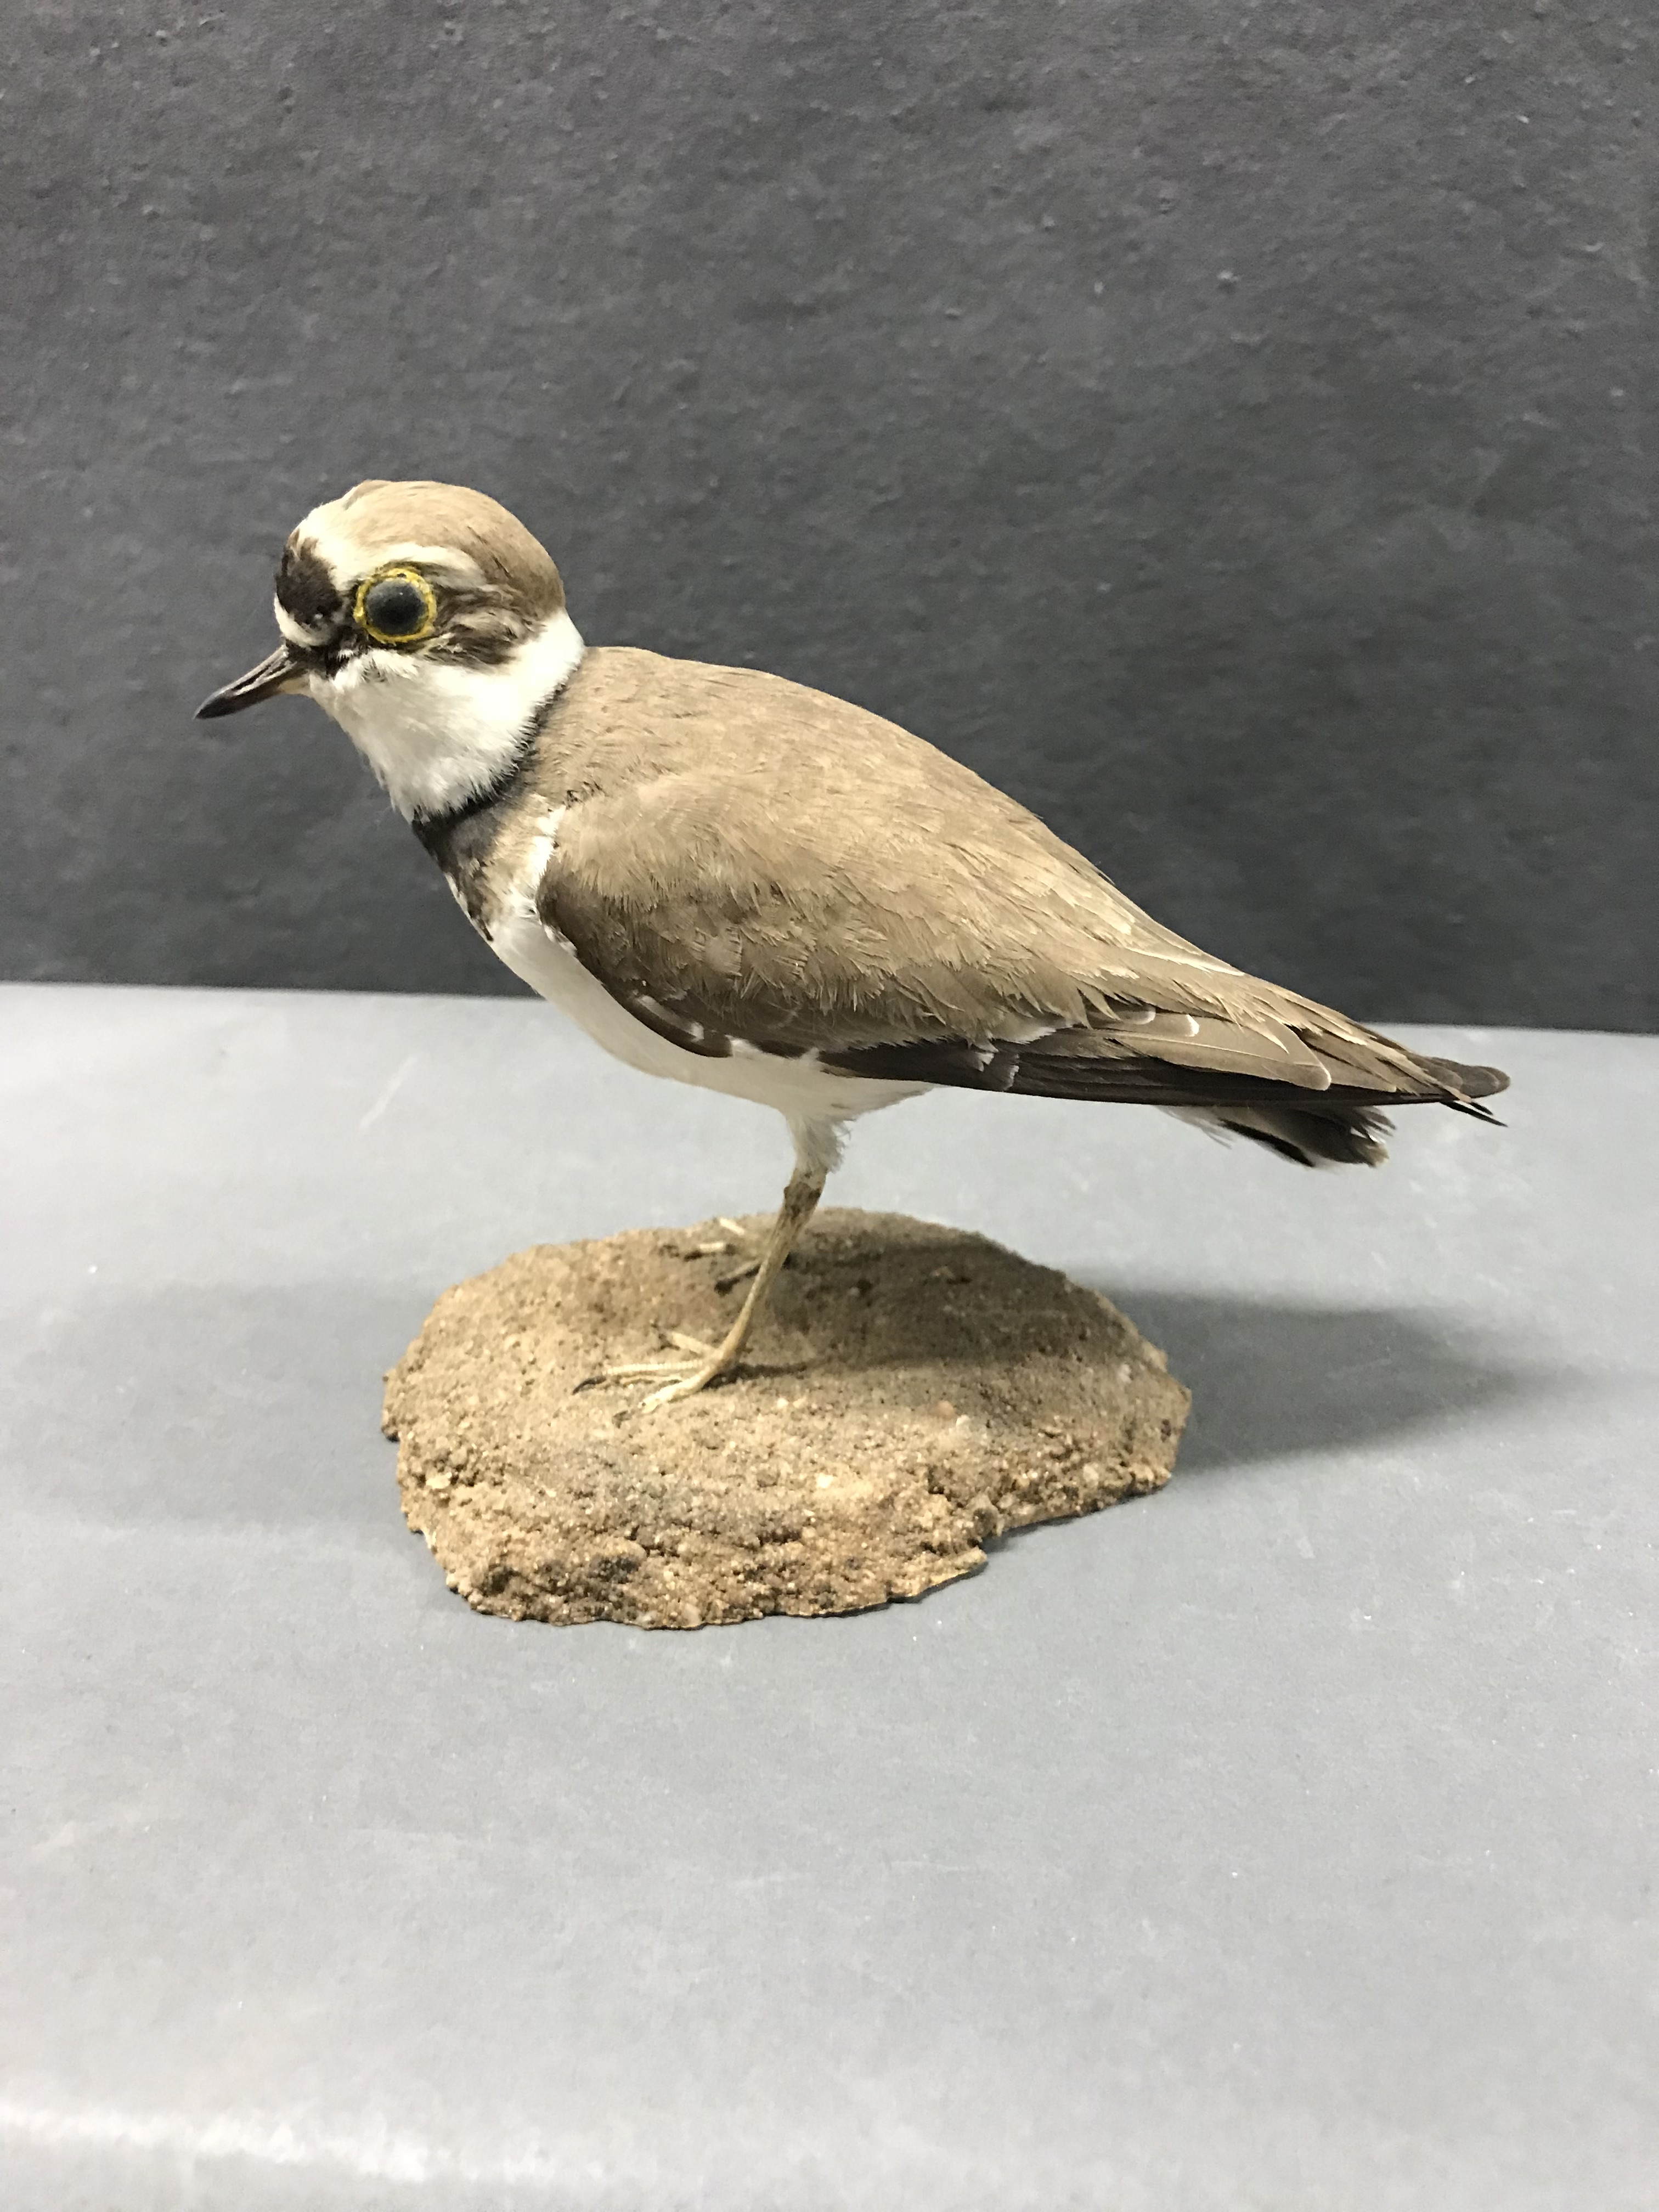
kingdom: Animalia
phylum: Chordata
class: Aves
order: Charadriiformes
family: Charadriidae
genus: Charadrius
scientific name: Charadrius dubius
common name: Little ringed plover
